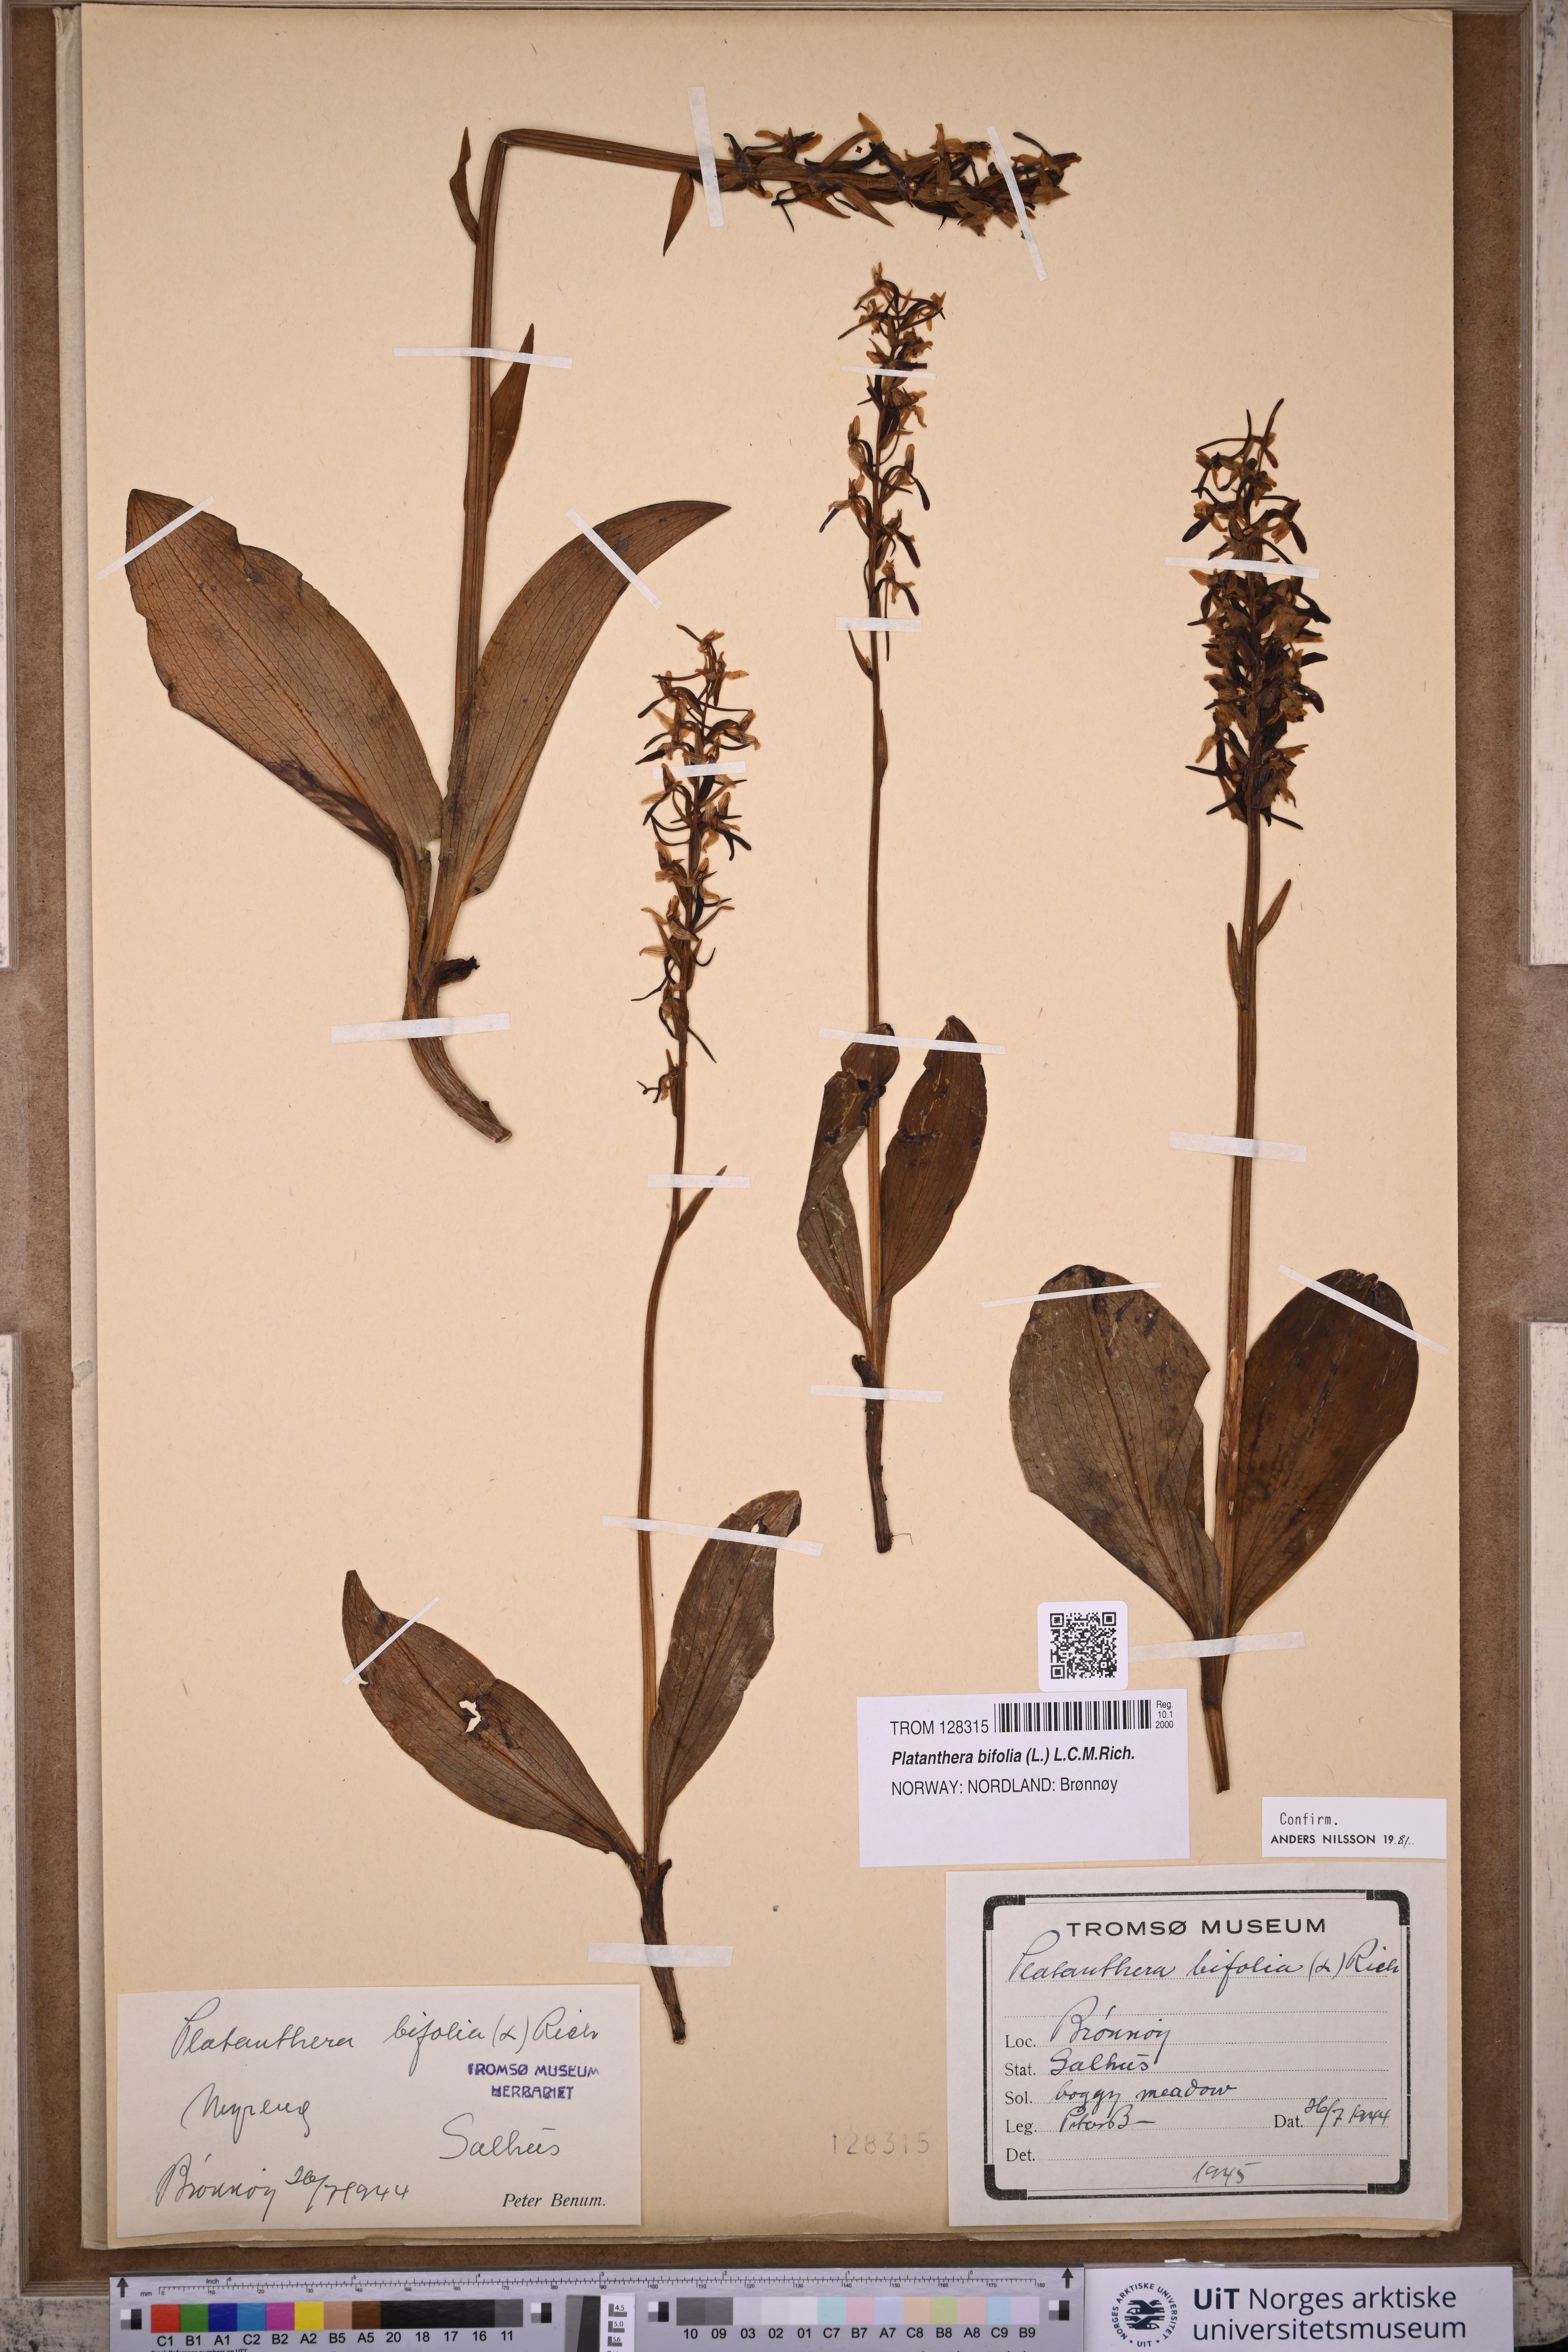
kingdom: Plantae
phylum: Tracheophyta
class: Liliopsida
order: Asparagales
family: Orchidaceae
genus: Platanthera
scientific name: Platanthera bifolia
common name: Lesser butterfly-orchid
